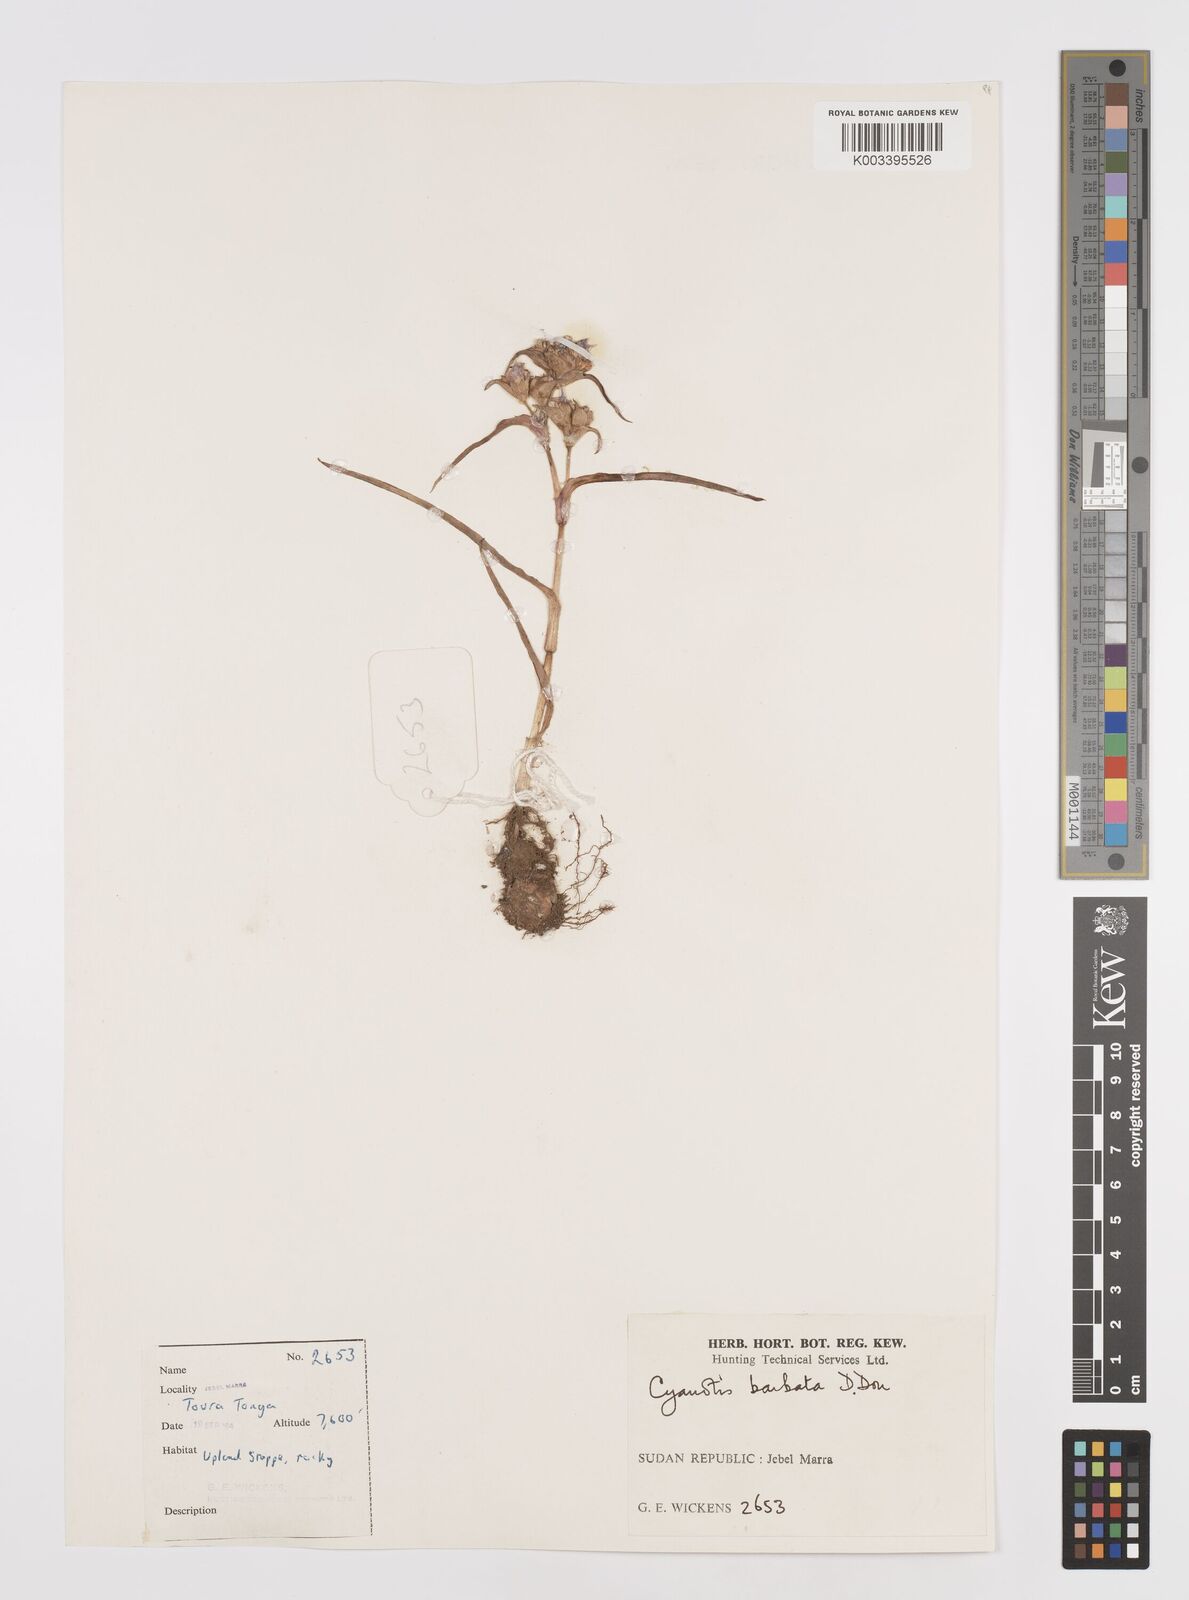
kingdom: Plantae
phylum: Tracheophyta
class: Liliopsida
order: Commelinales
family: Commelinaceae
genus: Cyanotis
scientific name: Cyanotis vaga
